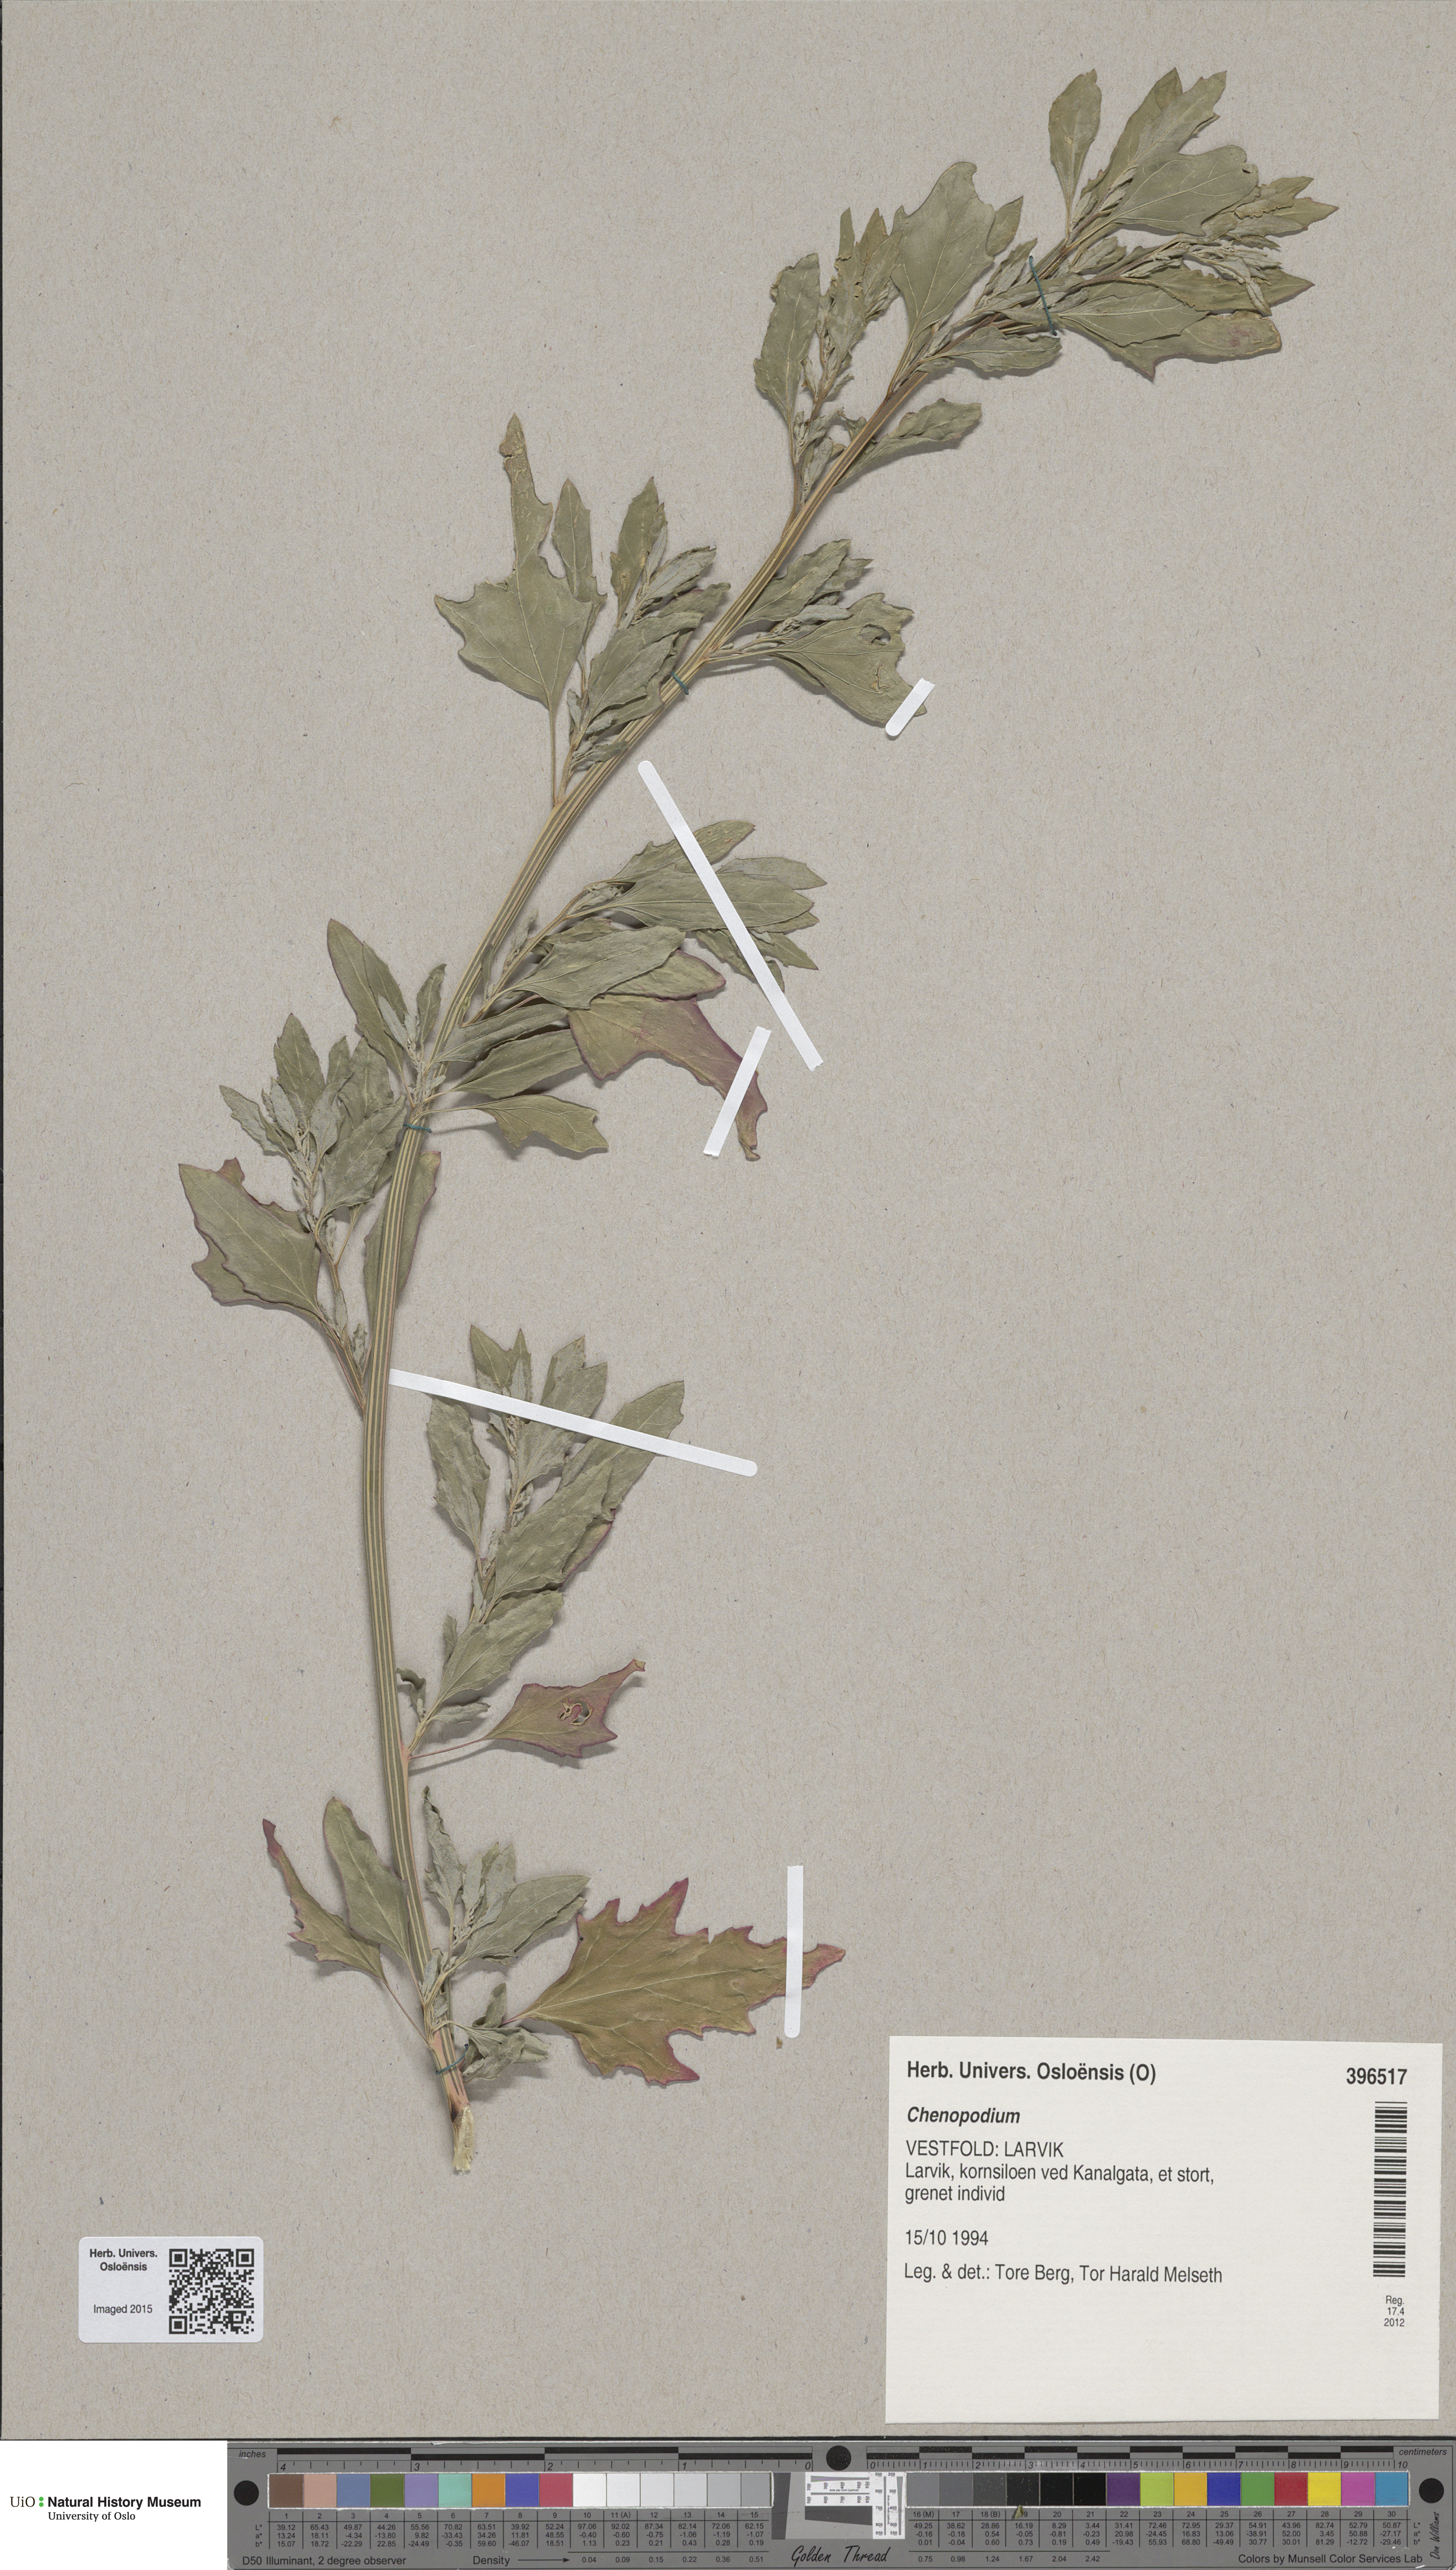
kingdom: Plantae
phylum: Tracheophyta
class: Magnoliopsida
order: Caryophyllales
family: Amaranthaceae
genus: Chenopodium
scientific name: Chenopodium
